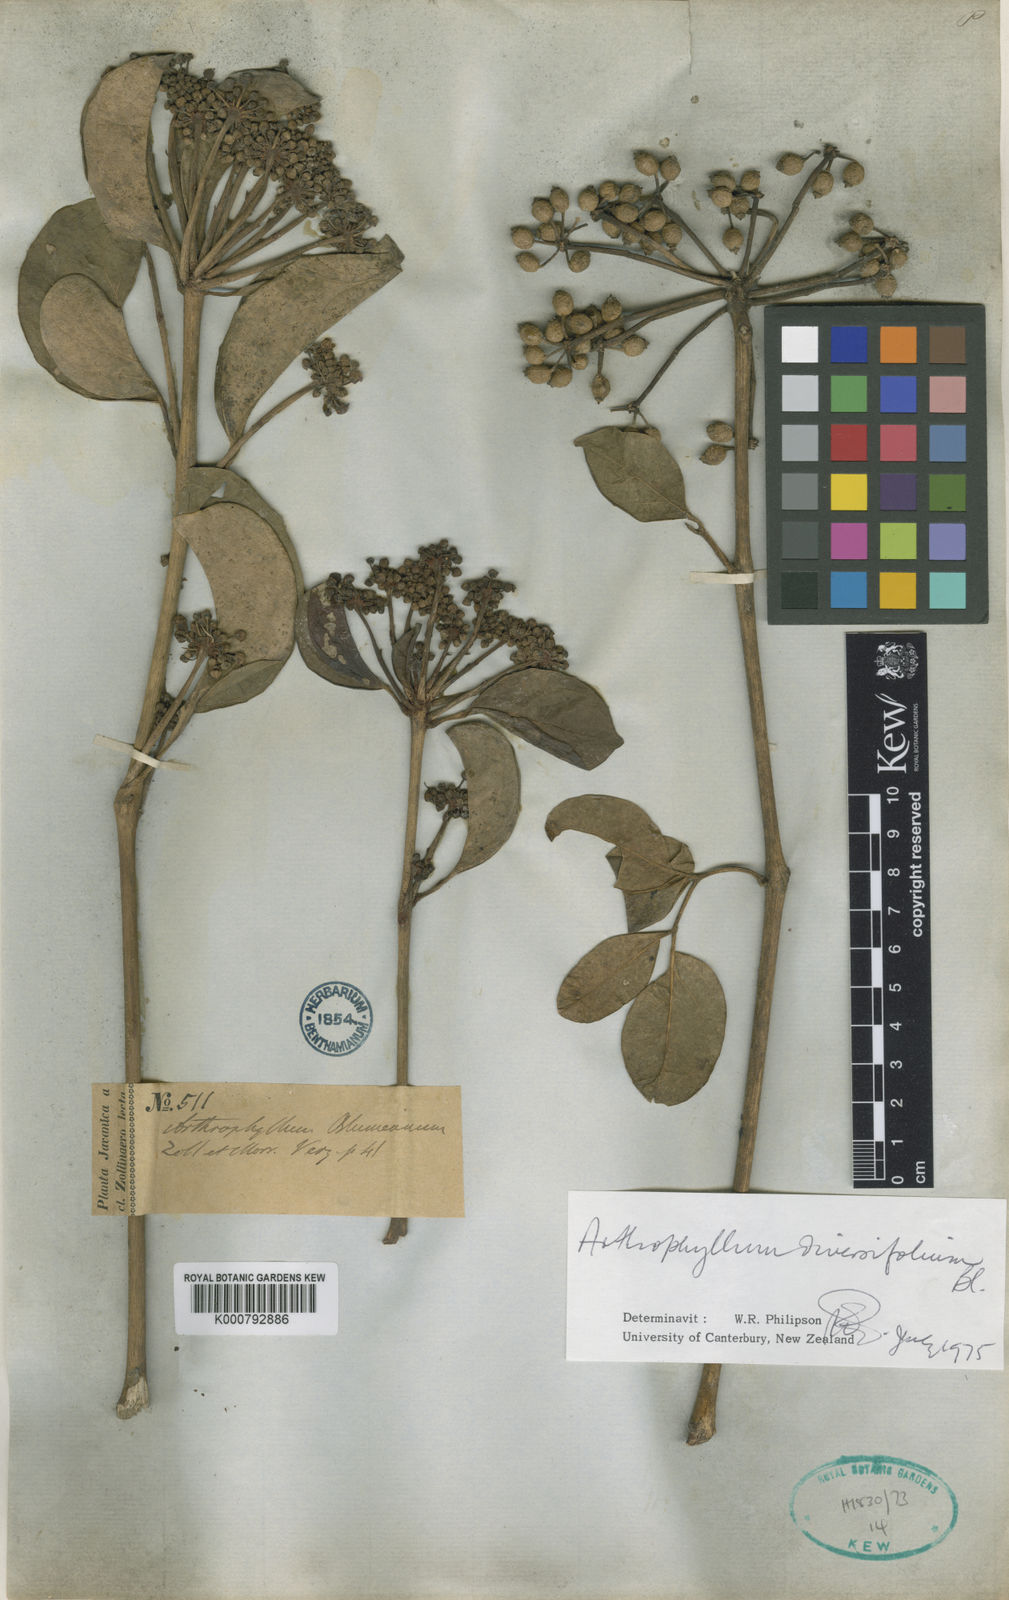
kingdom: Plantae
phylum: Tracheophyta
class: Magnoliopsida
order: Apiales
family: Araliaceae
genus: Polyscias
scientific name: Polyscias diversifolia
